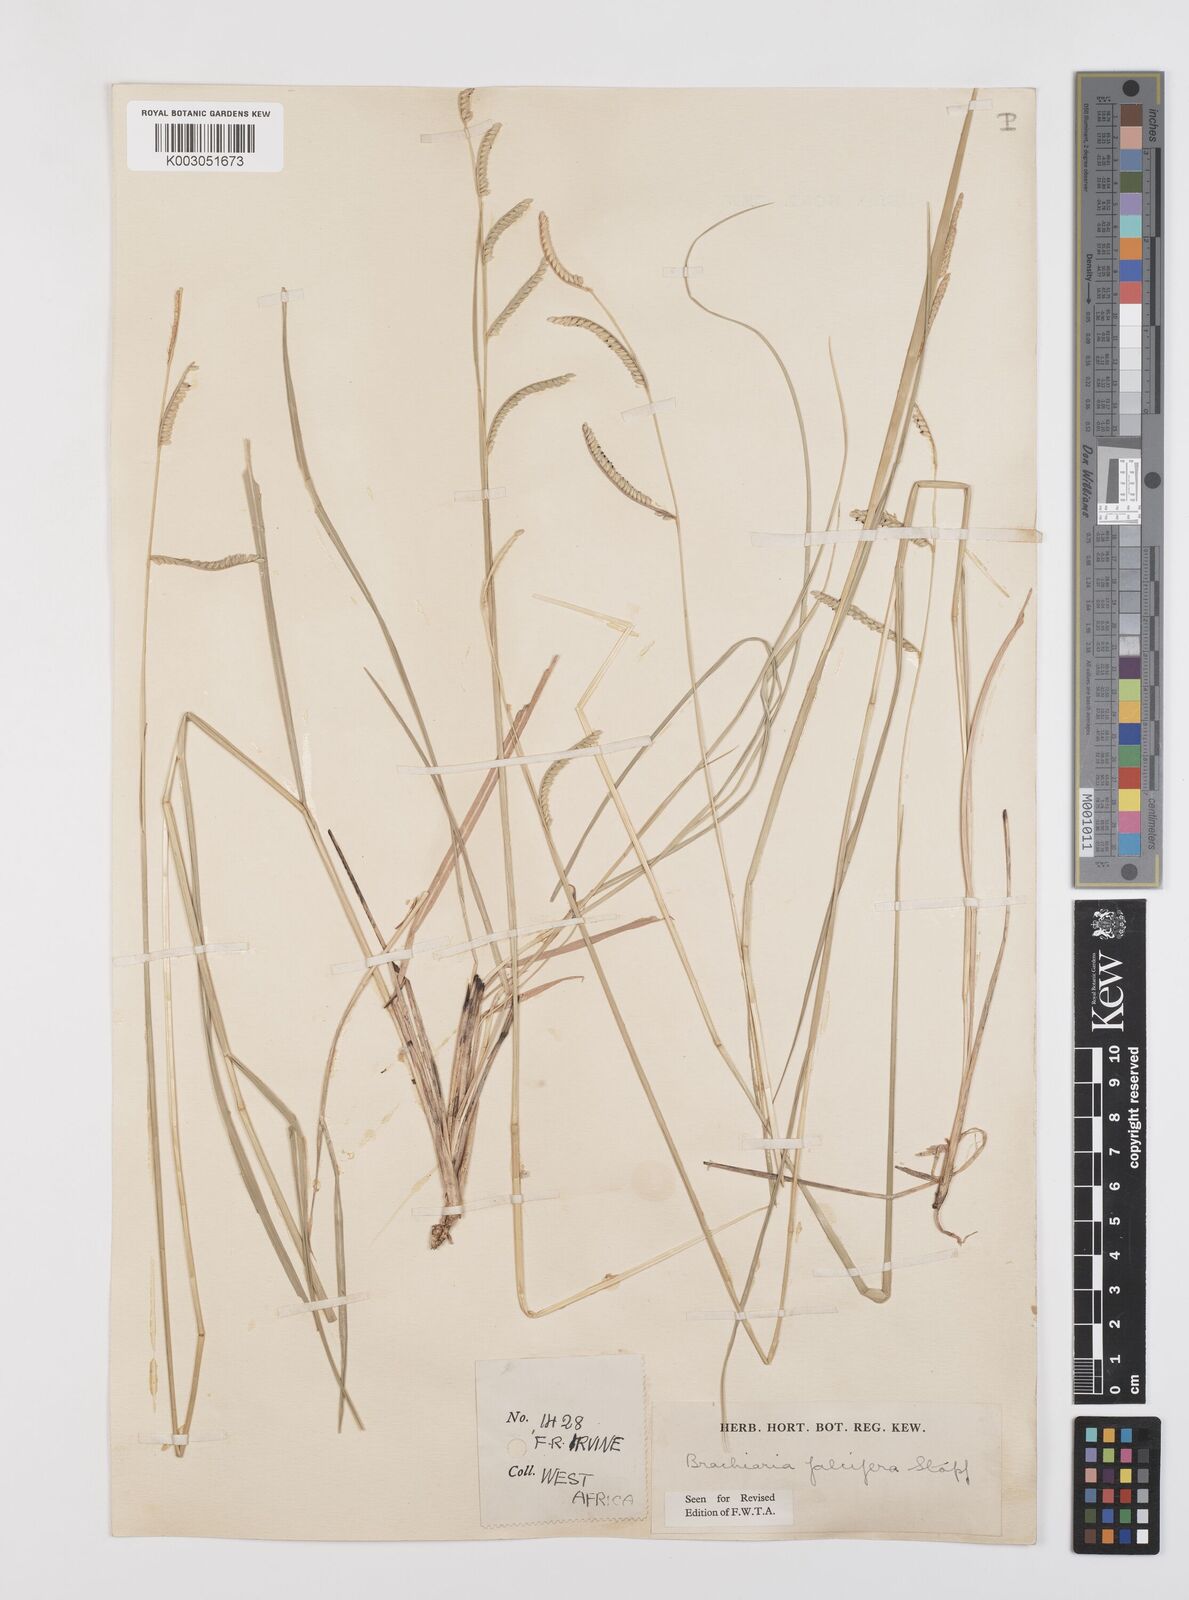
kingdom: Plantae
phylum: Tracheophyta
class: Liliopsida
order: Poales
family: Poaceae
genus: Urochloa
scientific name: Urochloa falcifera
